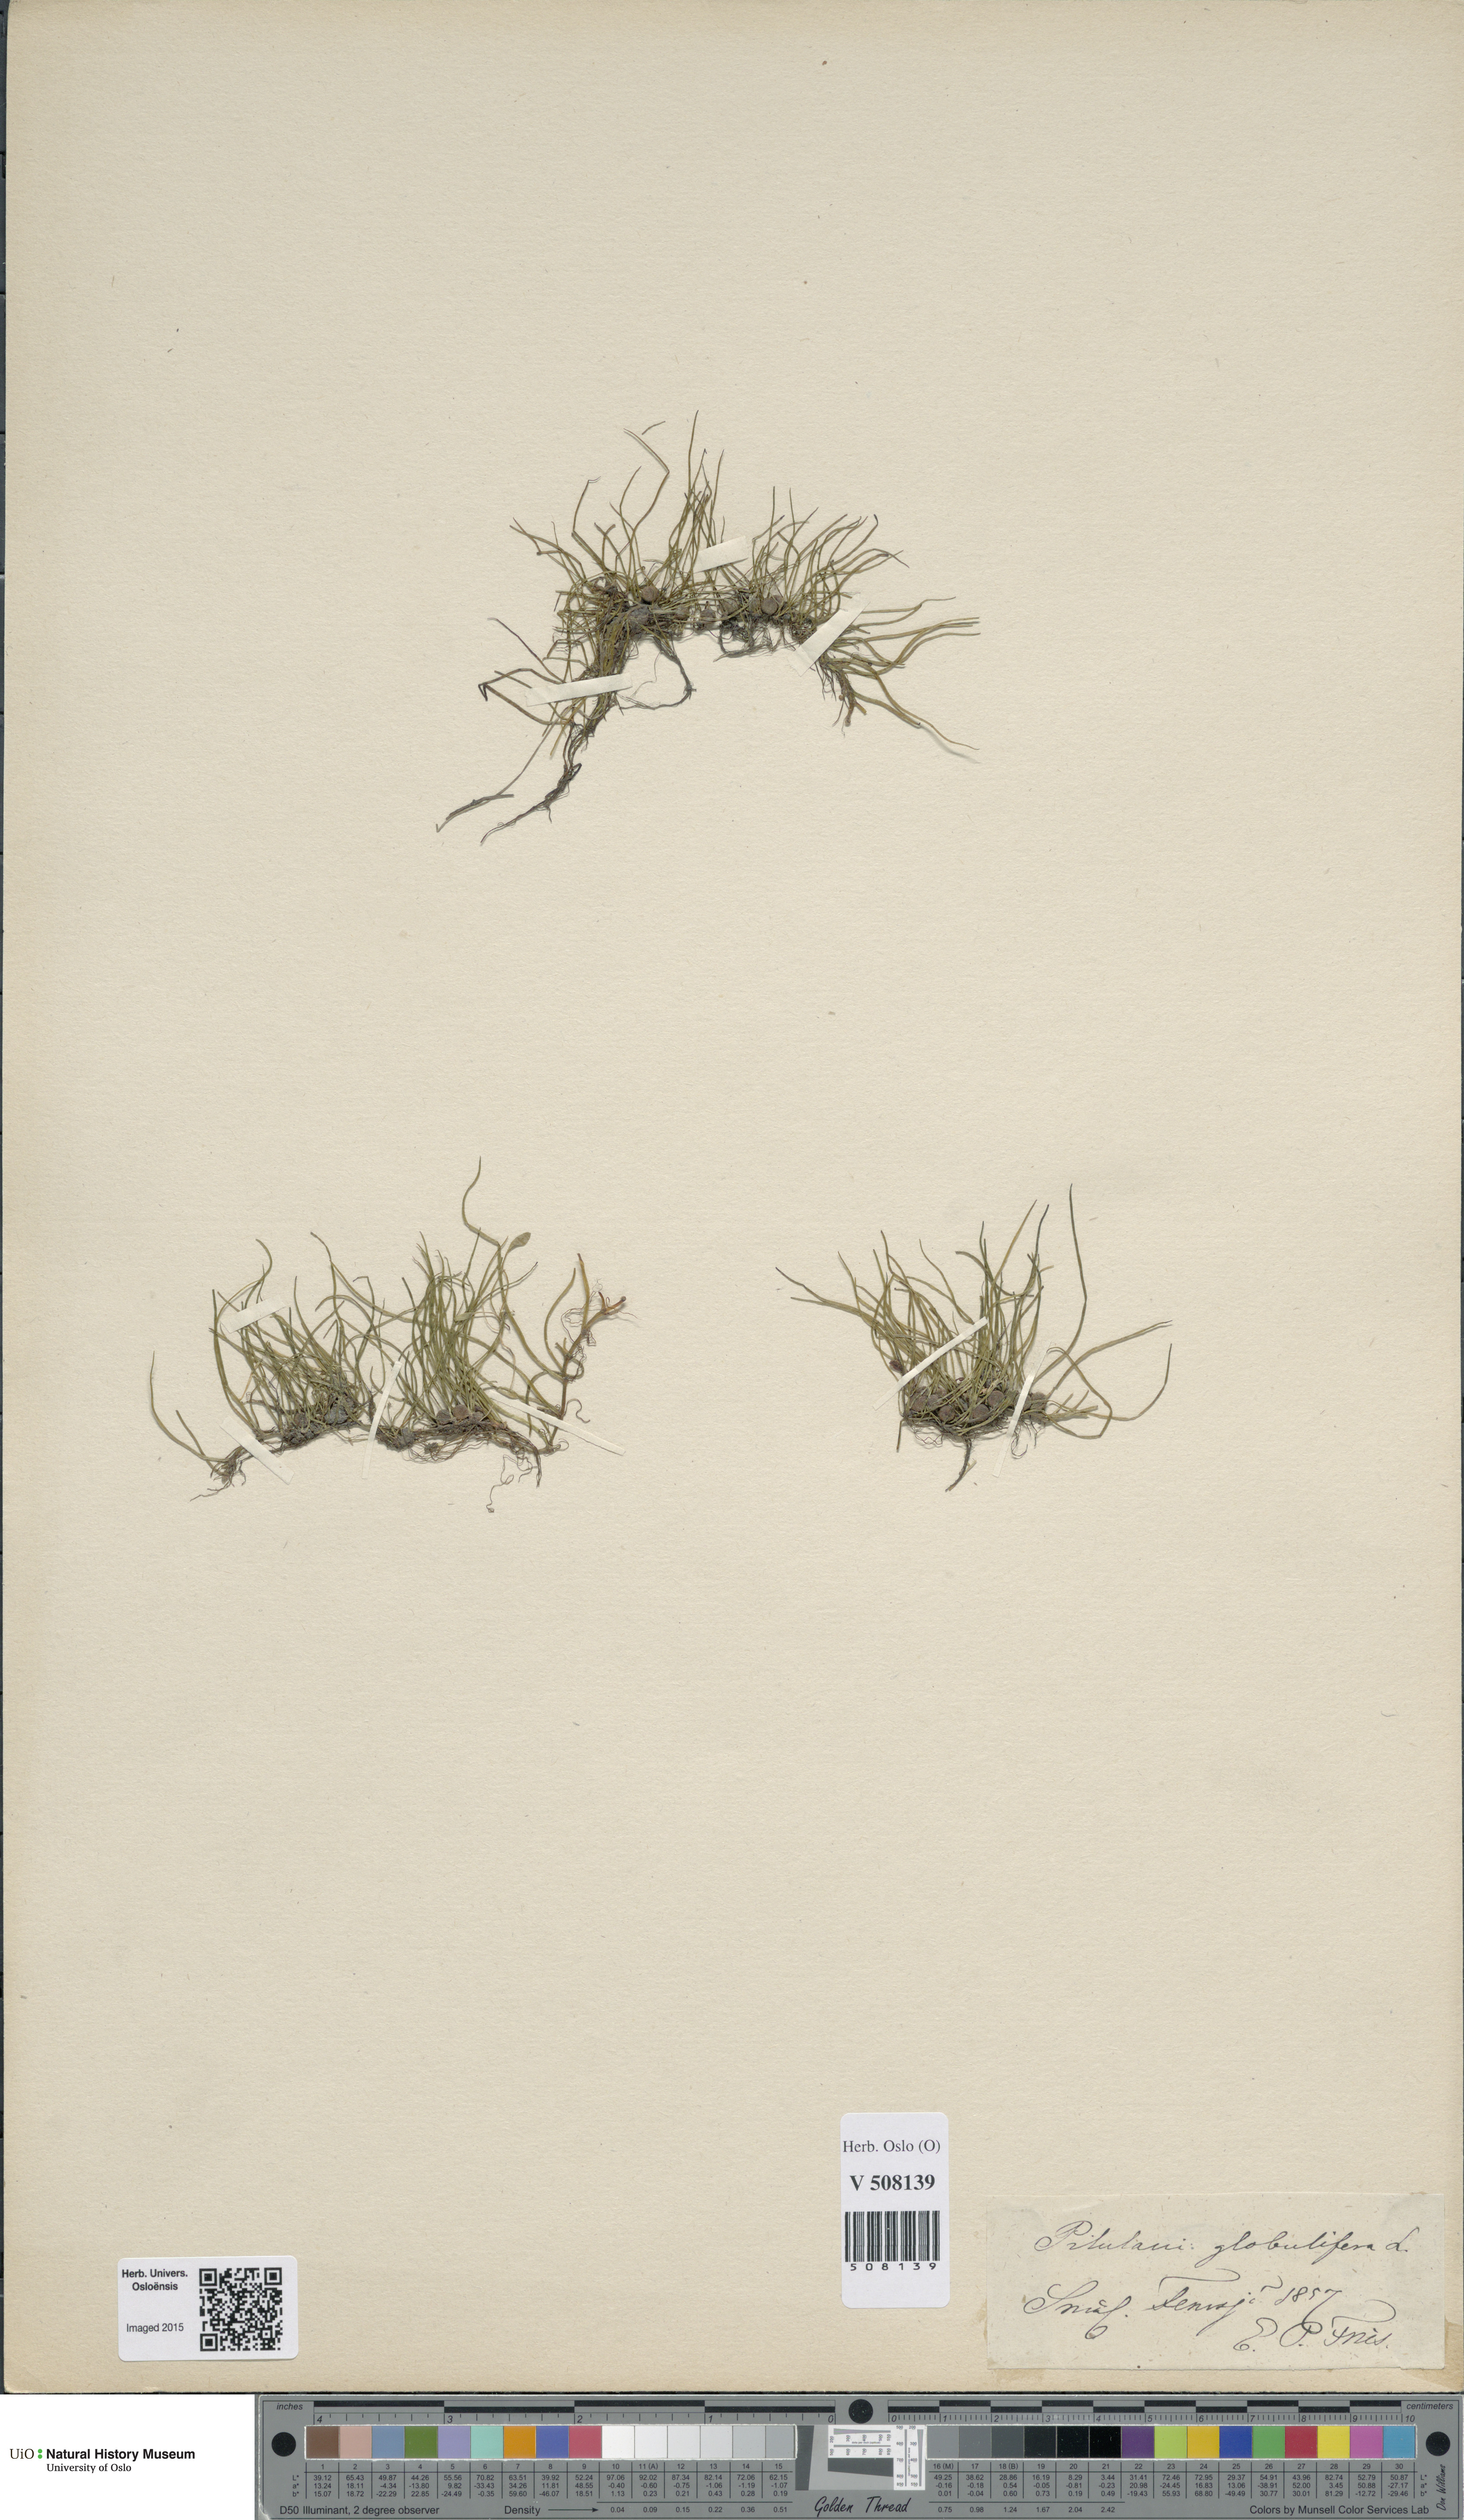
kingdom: Plantae
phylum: Tracheophyta
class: Polypodiopsida
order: Salviniales
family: Marsileaceae
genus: Pilularia
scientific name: Pilularia globulifera
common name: Pillwort
